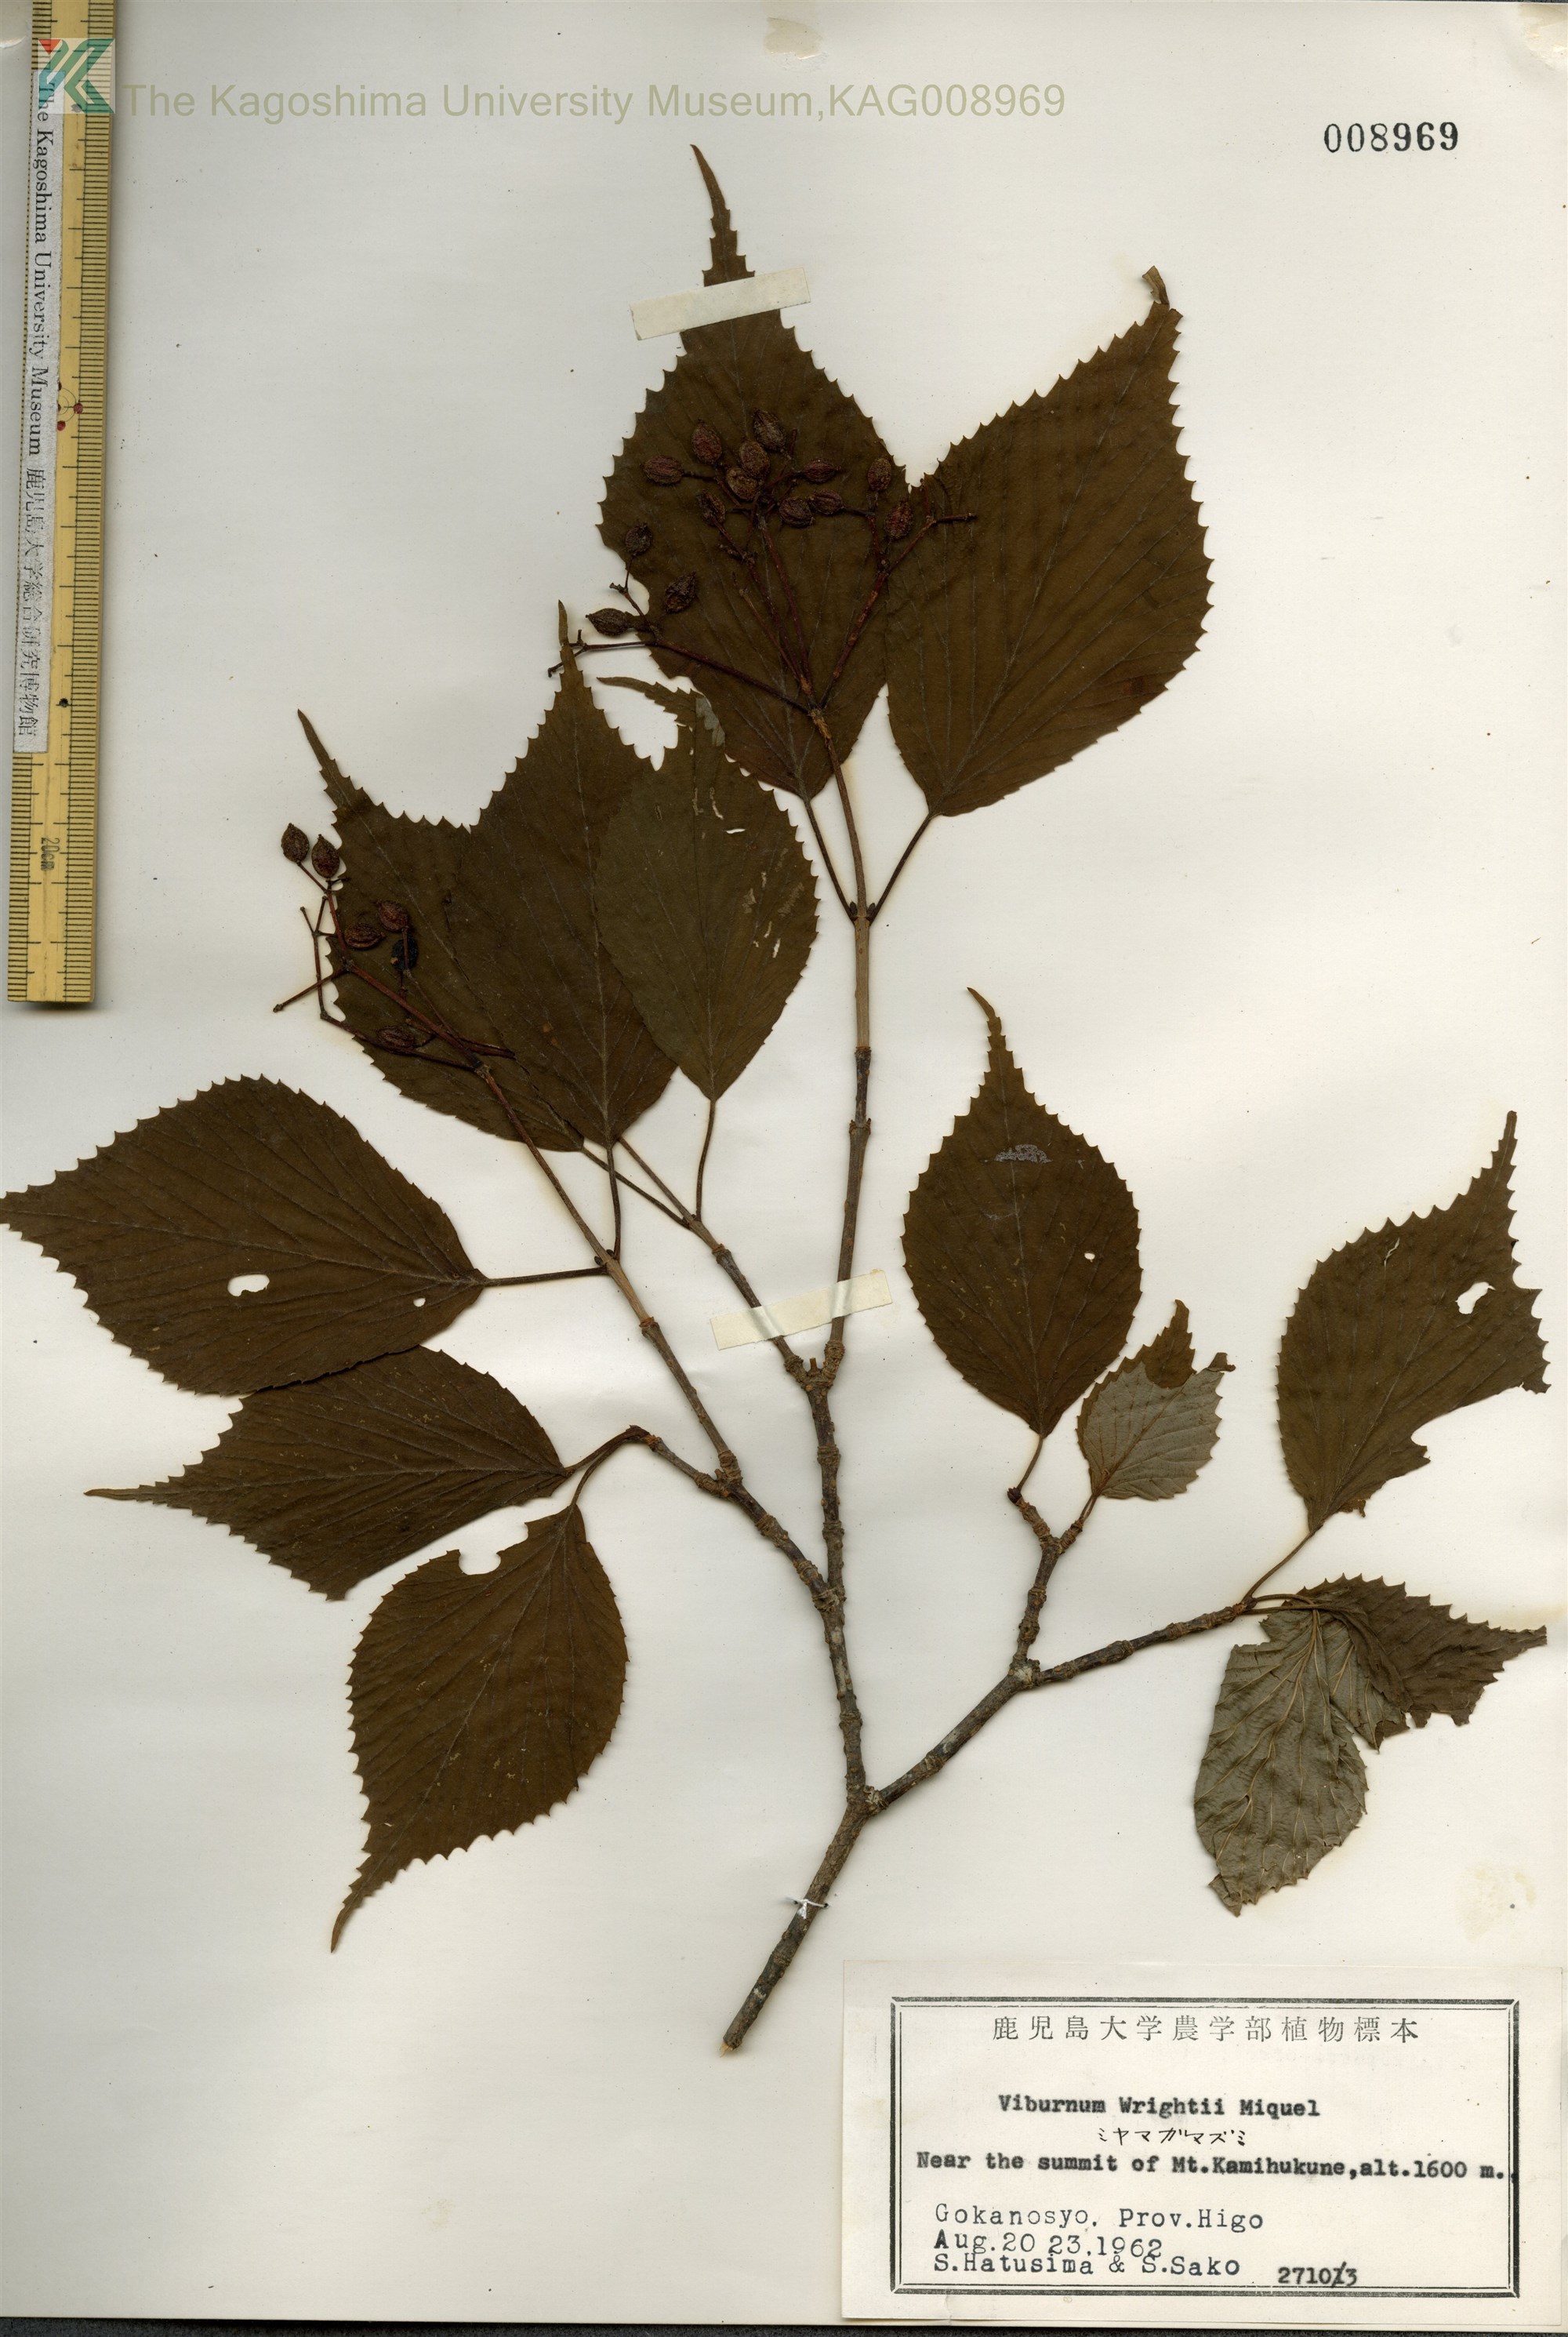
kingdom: Plantae
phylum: Tracheophyta
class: Magnoliopsida
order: Dipsacales
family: Viburnaceae
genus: Viburnum
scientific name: Viburnum wrightii
